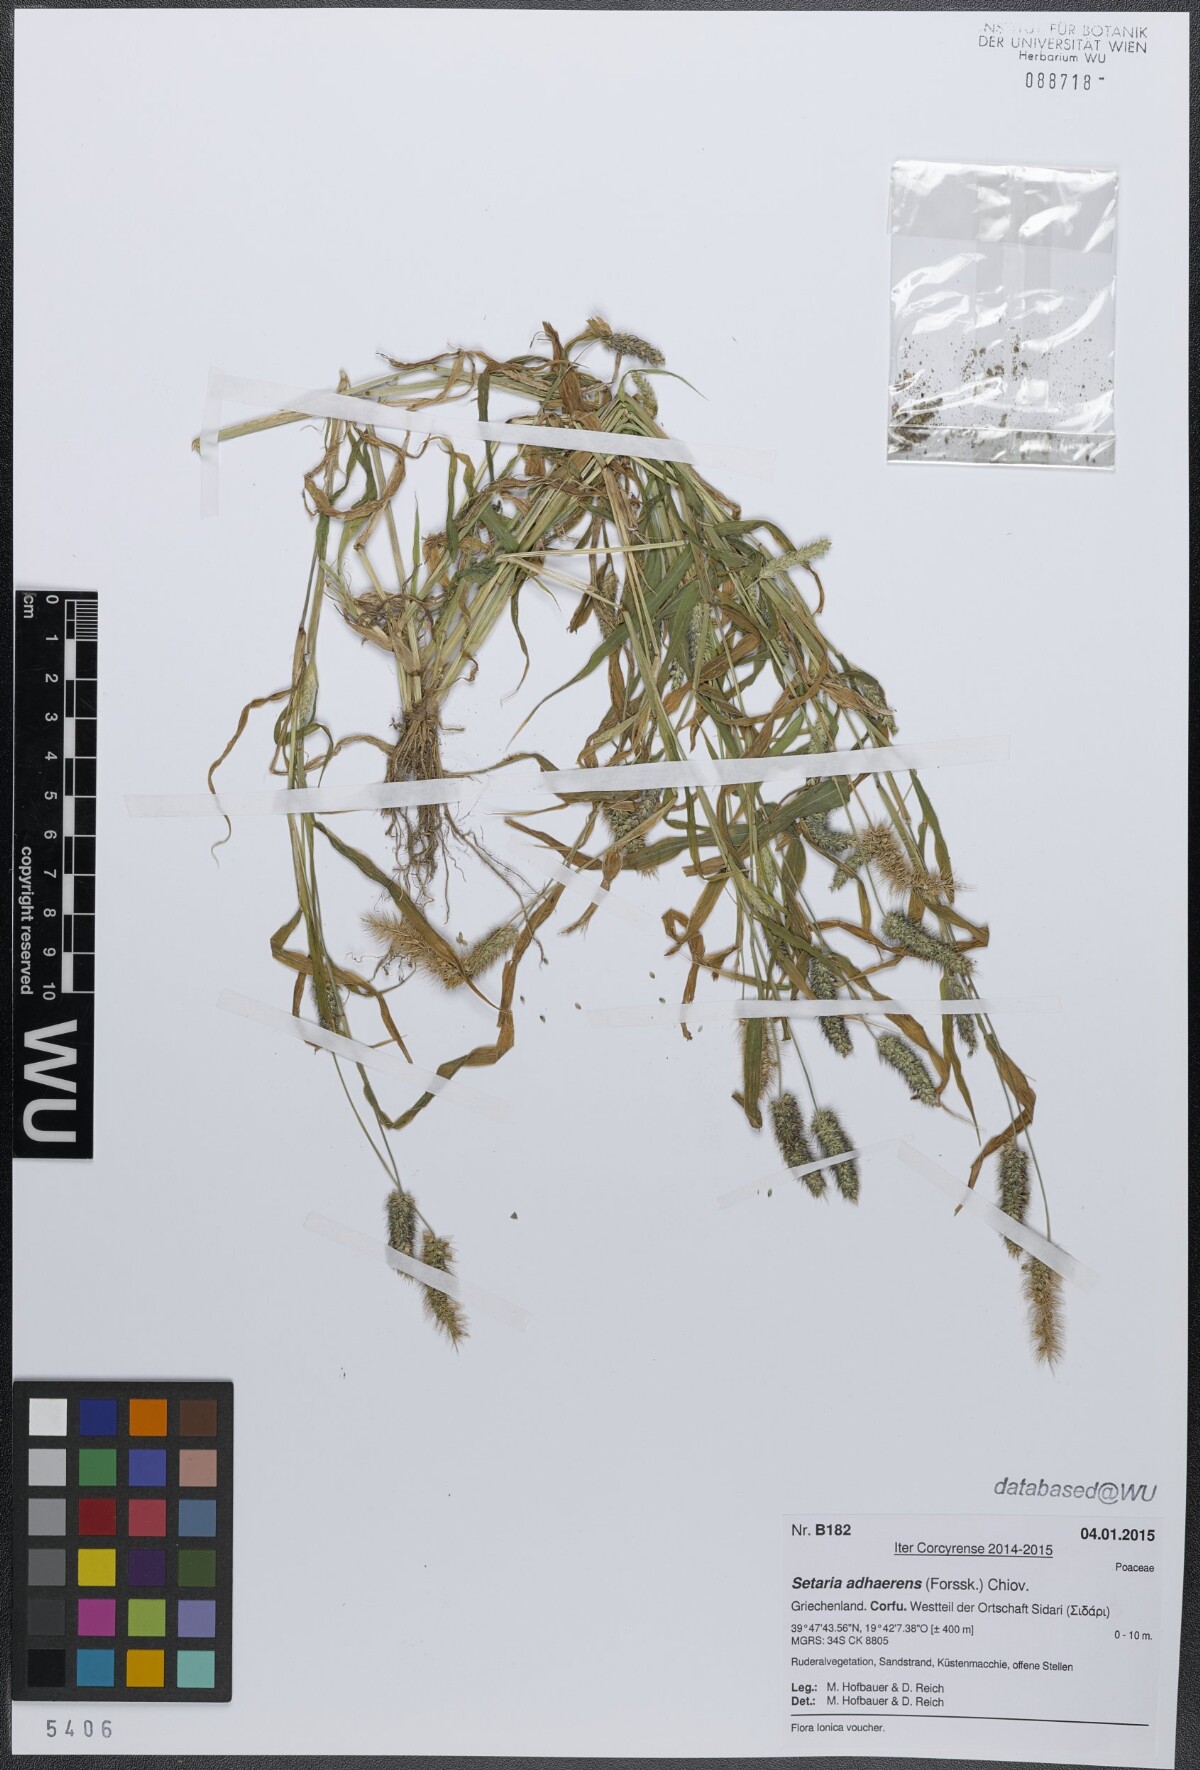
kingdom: Plantae
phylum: Tracheophyta
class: Liliopsida
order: Poales
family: Poaceae
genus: Setaria
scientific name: Setaria adhaerens
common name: Adherent bristle-grass
